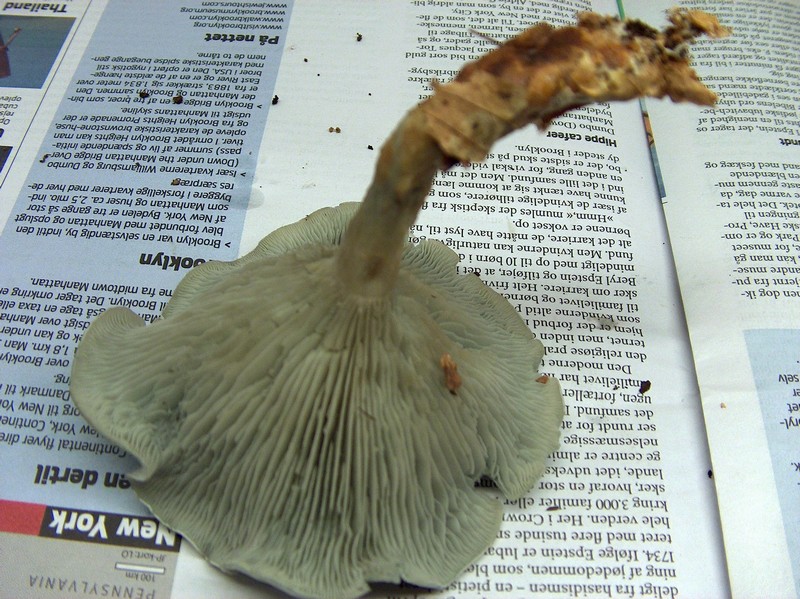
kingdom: Fungi
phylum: Basidiomycota
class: Agaricomycetes
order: Agaricales
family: Tricholomataceae
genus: Clitocybe
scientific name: Clitocybe odora
